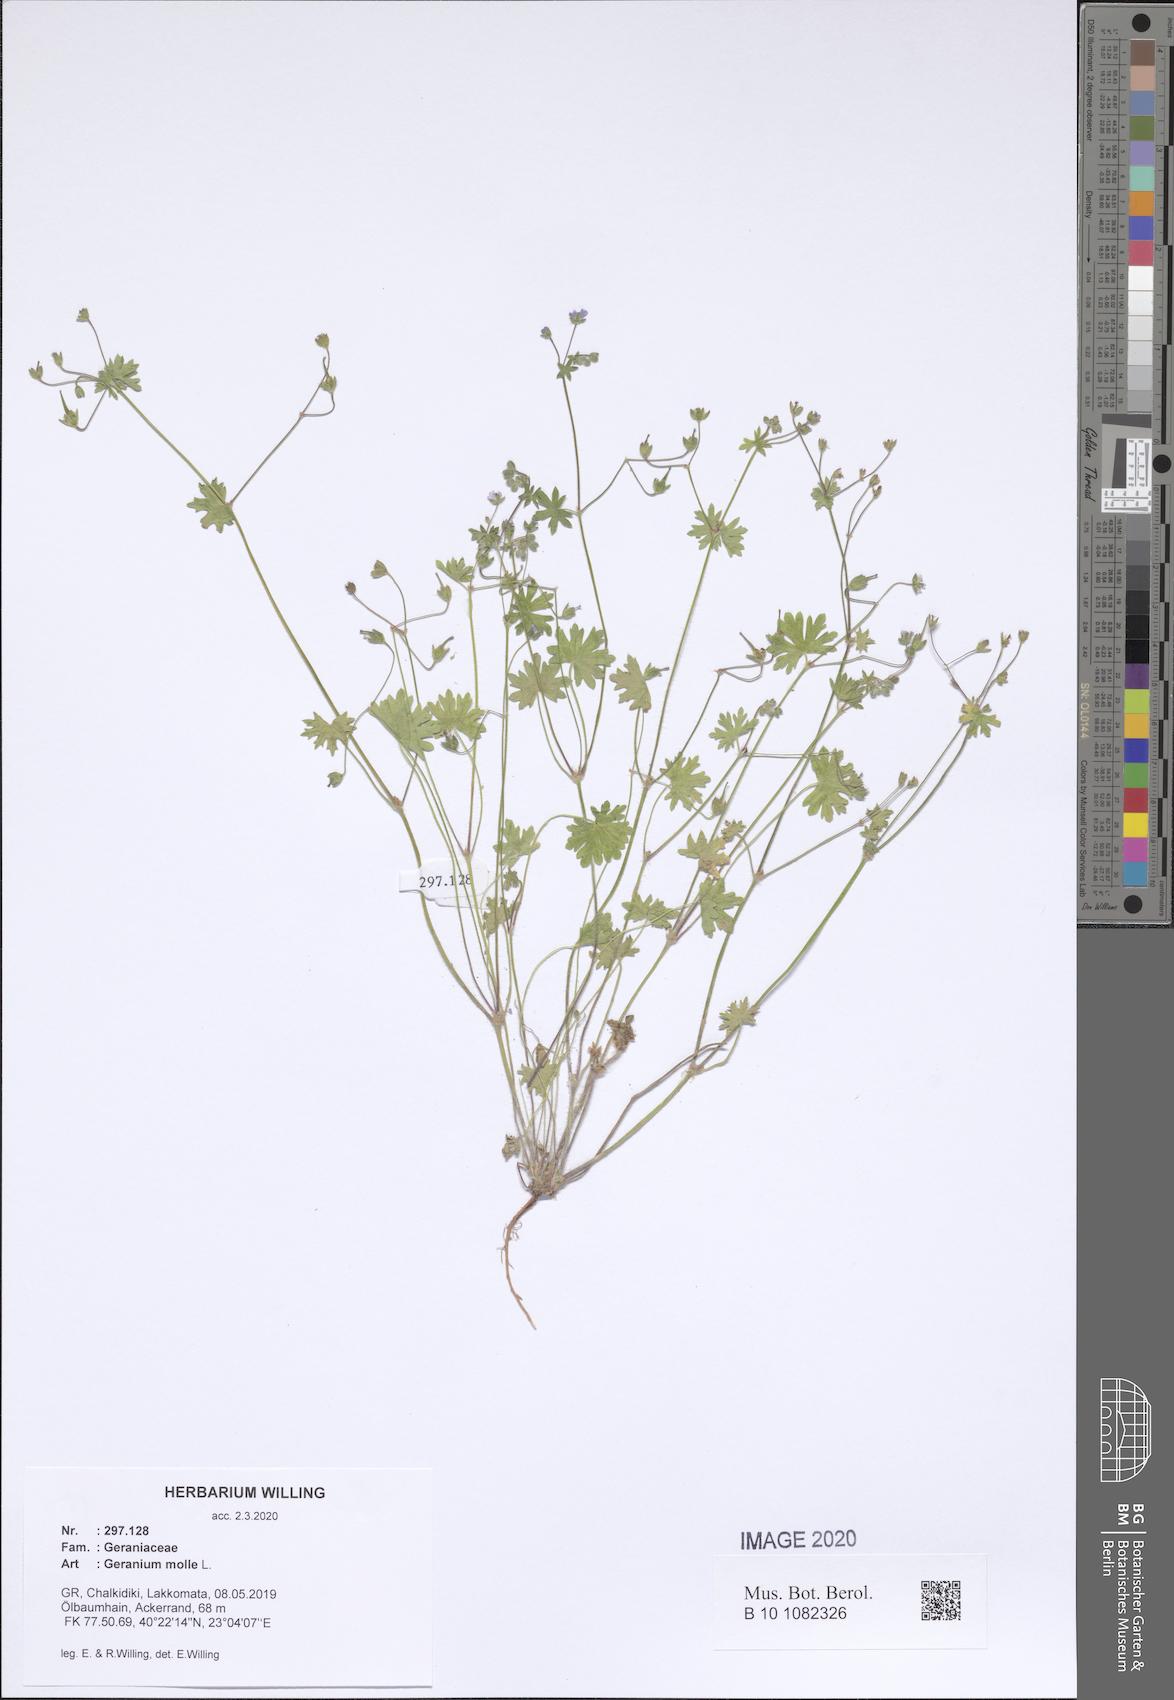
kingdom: Plantae
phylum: Tracheophyta
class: Magnoliopsida
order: Geraniales
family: Geraniaceae
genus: Geranium
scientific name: Geranium molle
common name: Dove's-foot crane's-bill
